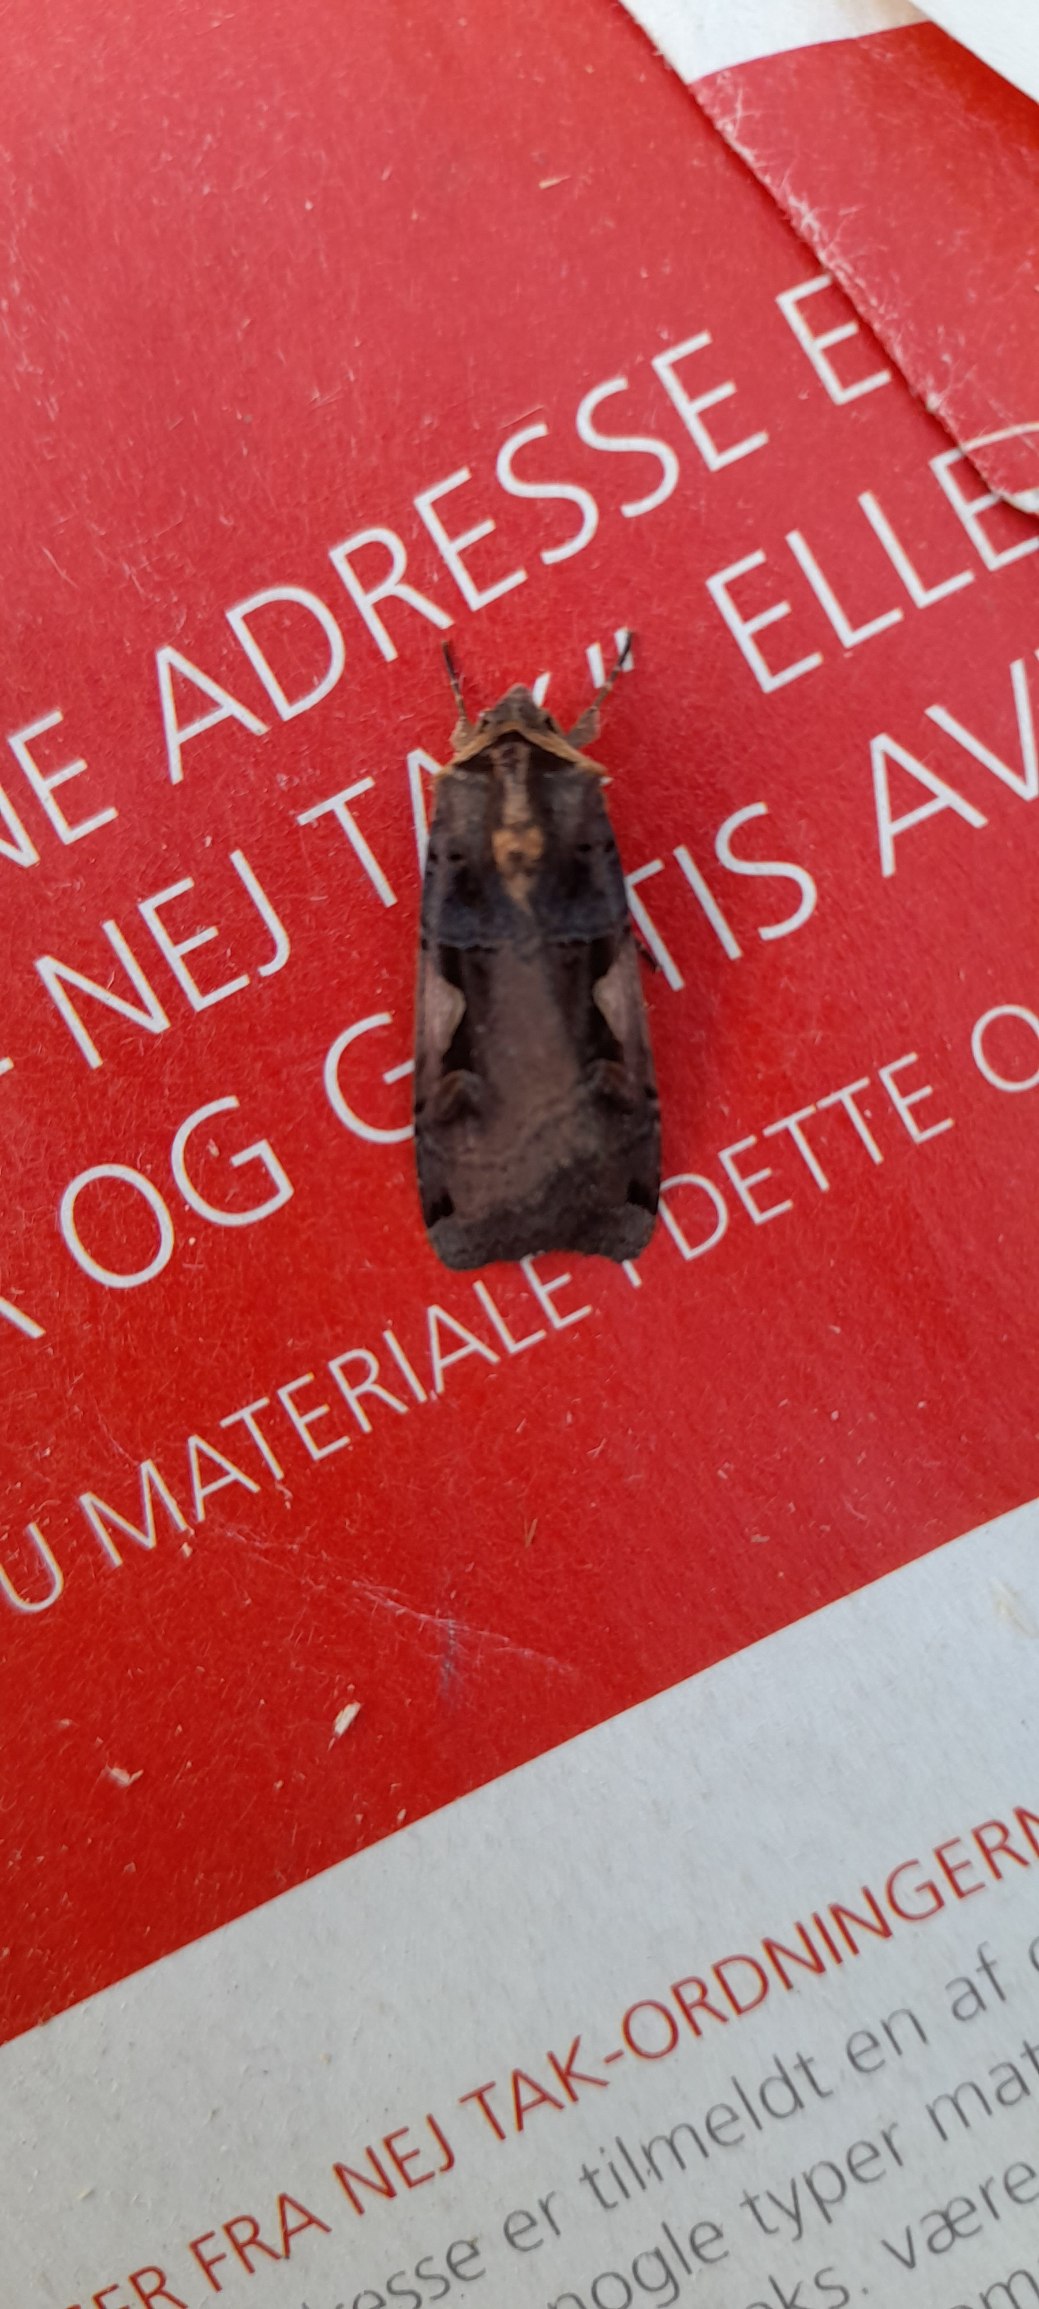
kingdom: Animalia
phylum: Arthropoda
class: Insecta
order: Lepidoptera
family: Noctuidae
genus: Xestia
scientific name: Xestia c-nigrum
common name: Det sorte c
